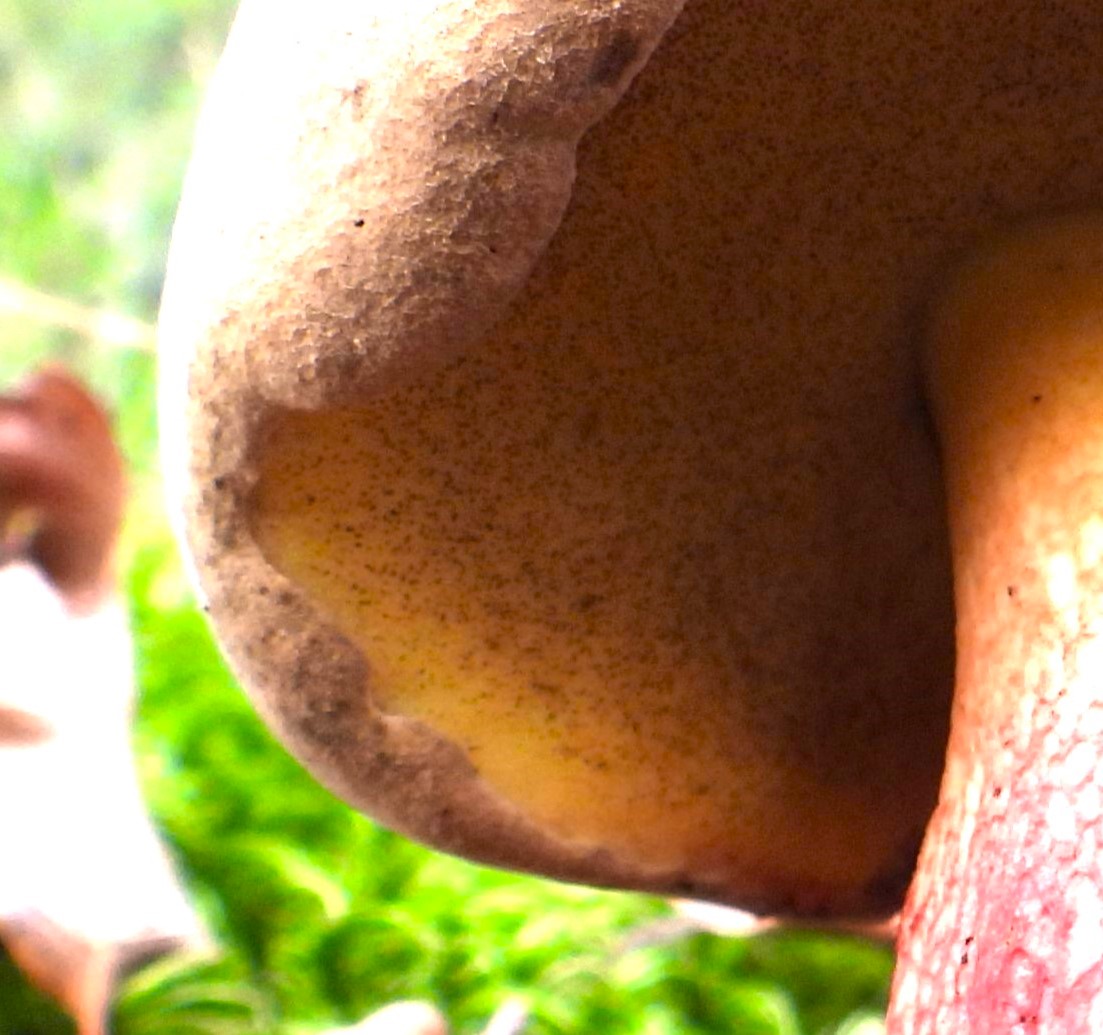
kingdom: Fungi
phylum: Basidiomycota
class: Agaricomycetes
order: Boletales
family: Boletaceae
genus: Caloboletus
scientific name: Caloboletus calopus
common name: skønfodet rørhat
